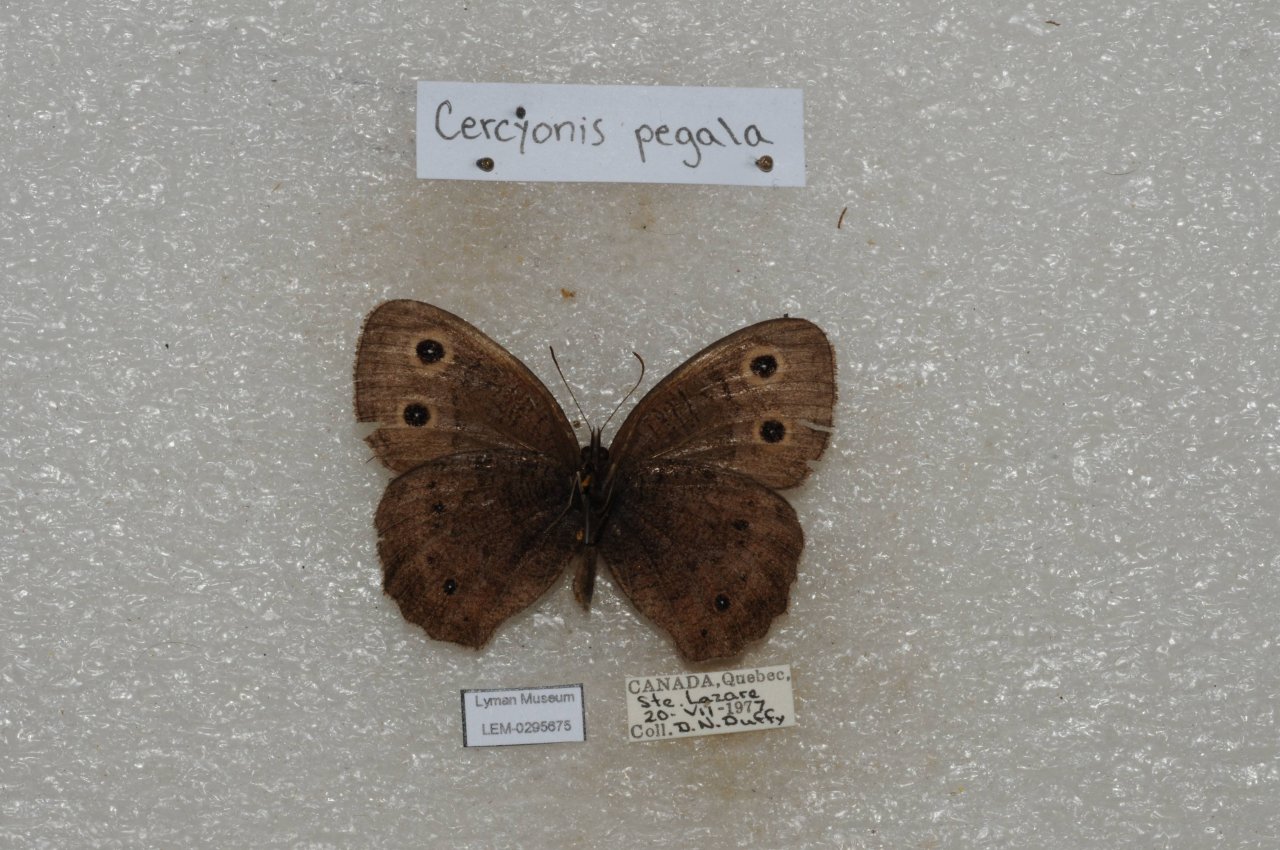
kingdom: Animalia
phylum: Arthropoda
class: Insecta
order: Lepidoptera
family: Nymphalidae
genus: Cercyonis
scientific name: Cercyonis pegala
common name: Common Wood-Nymph
